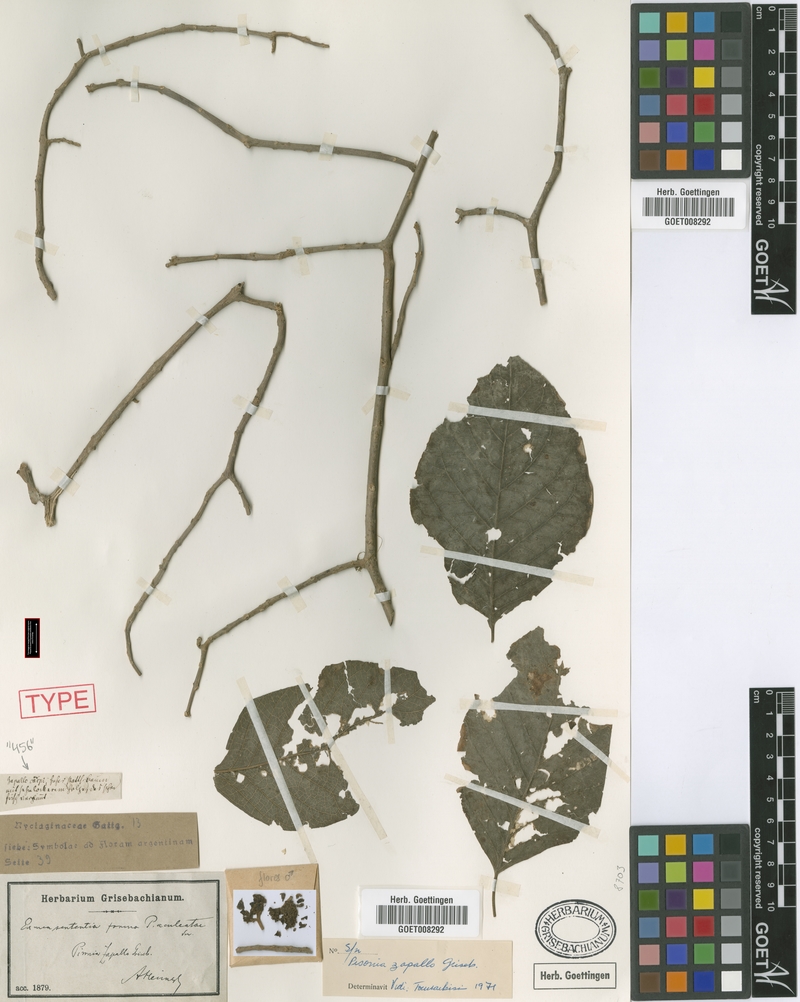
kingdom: Plantae
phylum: Tracheophyta
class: Magnoliopsida
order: Caryophyllales
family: Nyctaginaceae
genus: Pisonia
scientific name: Pisonia zapallo
